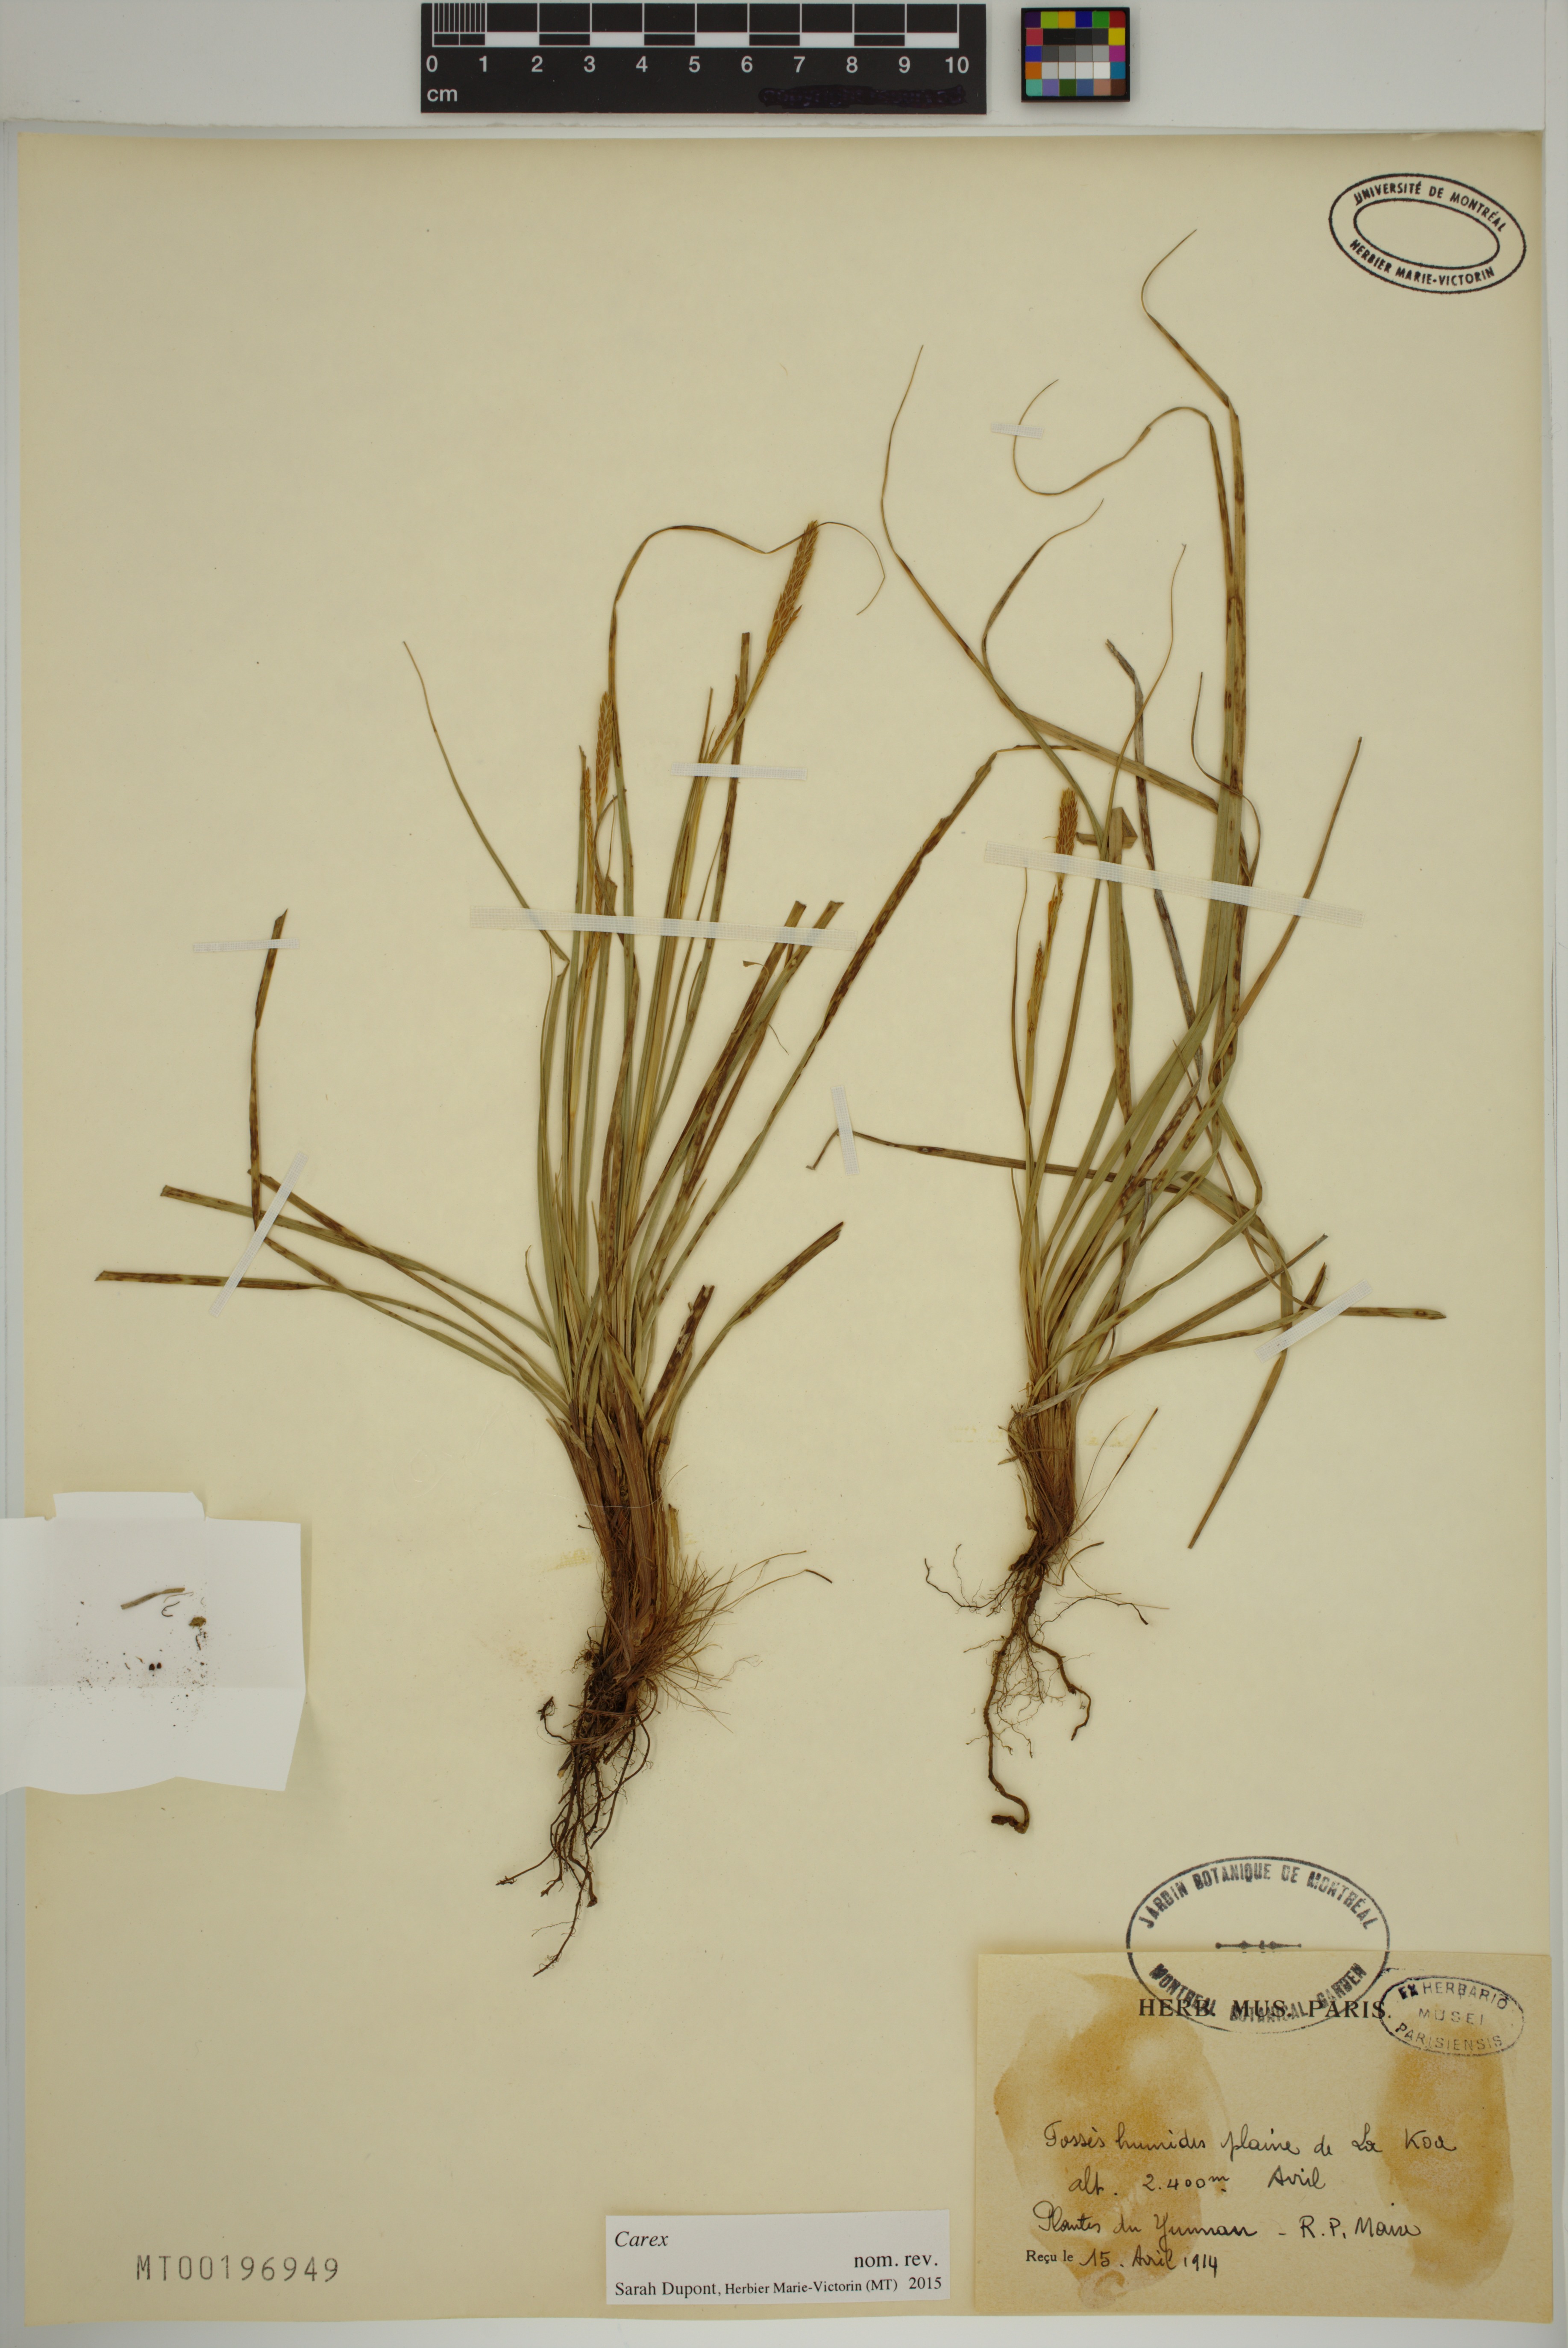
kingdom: Plantae
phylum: Tracheophyta
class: Liliopsida
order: Poales
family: Cyperaceae
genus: Carex
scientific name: Carex
